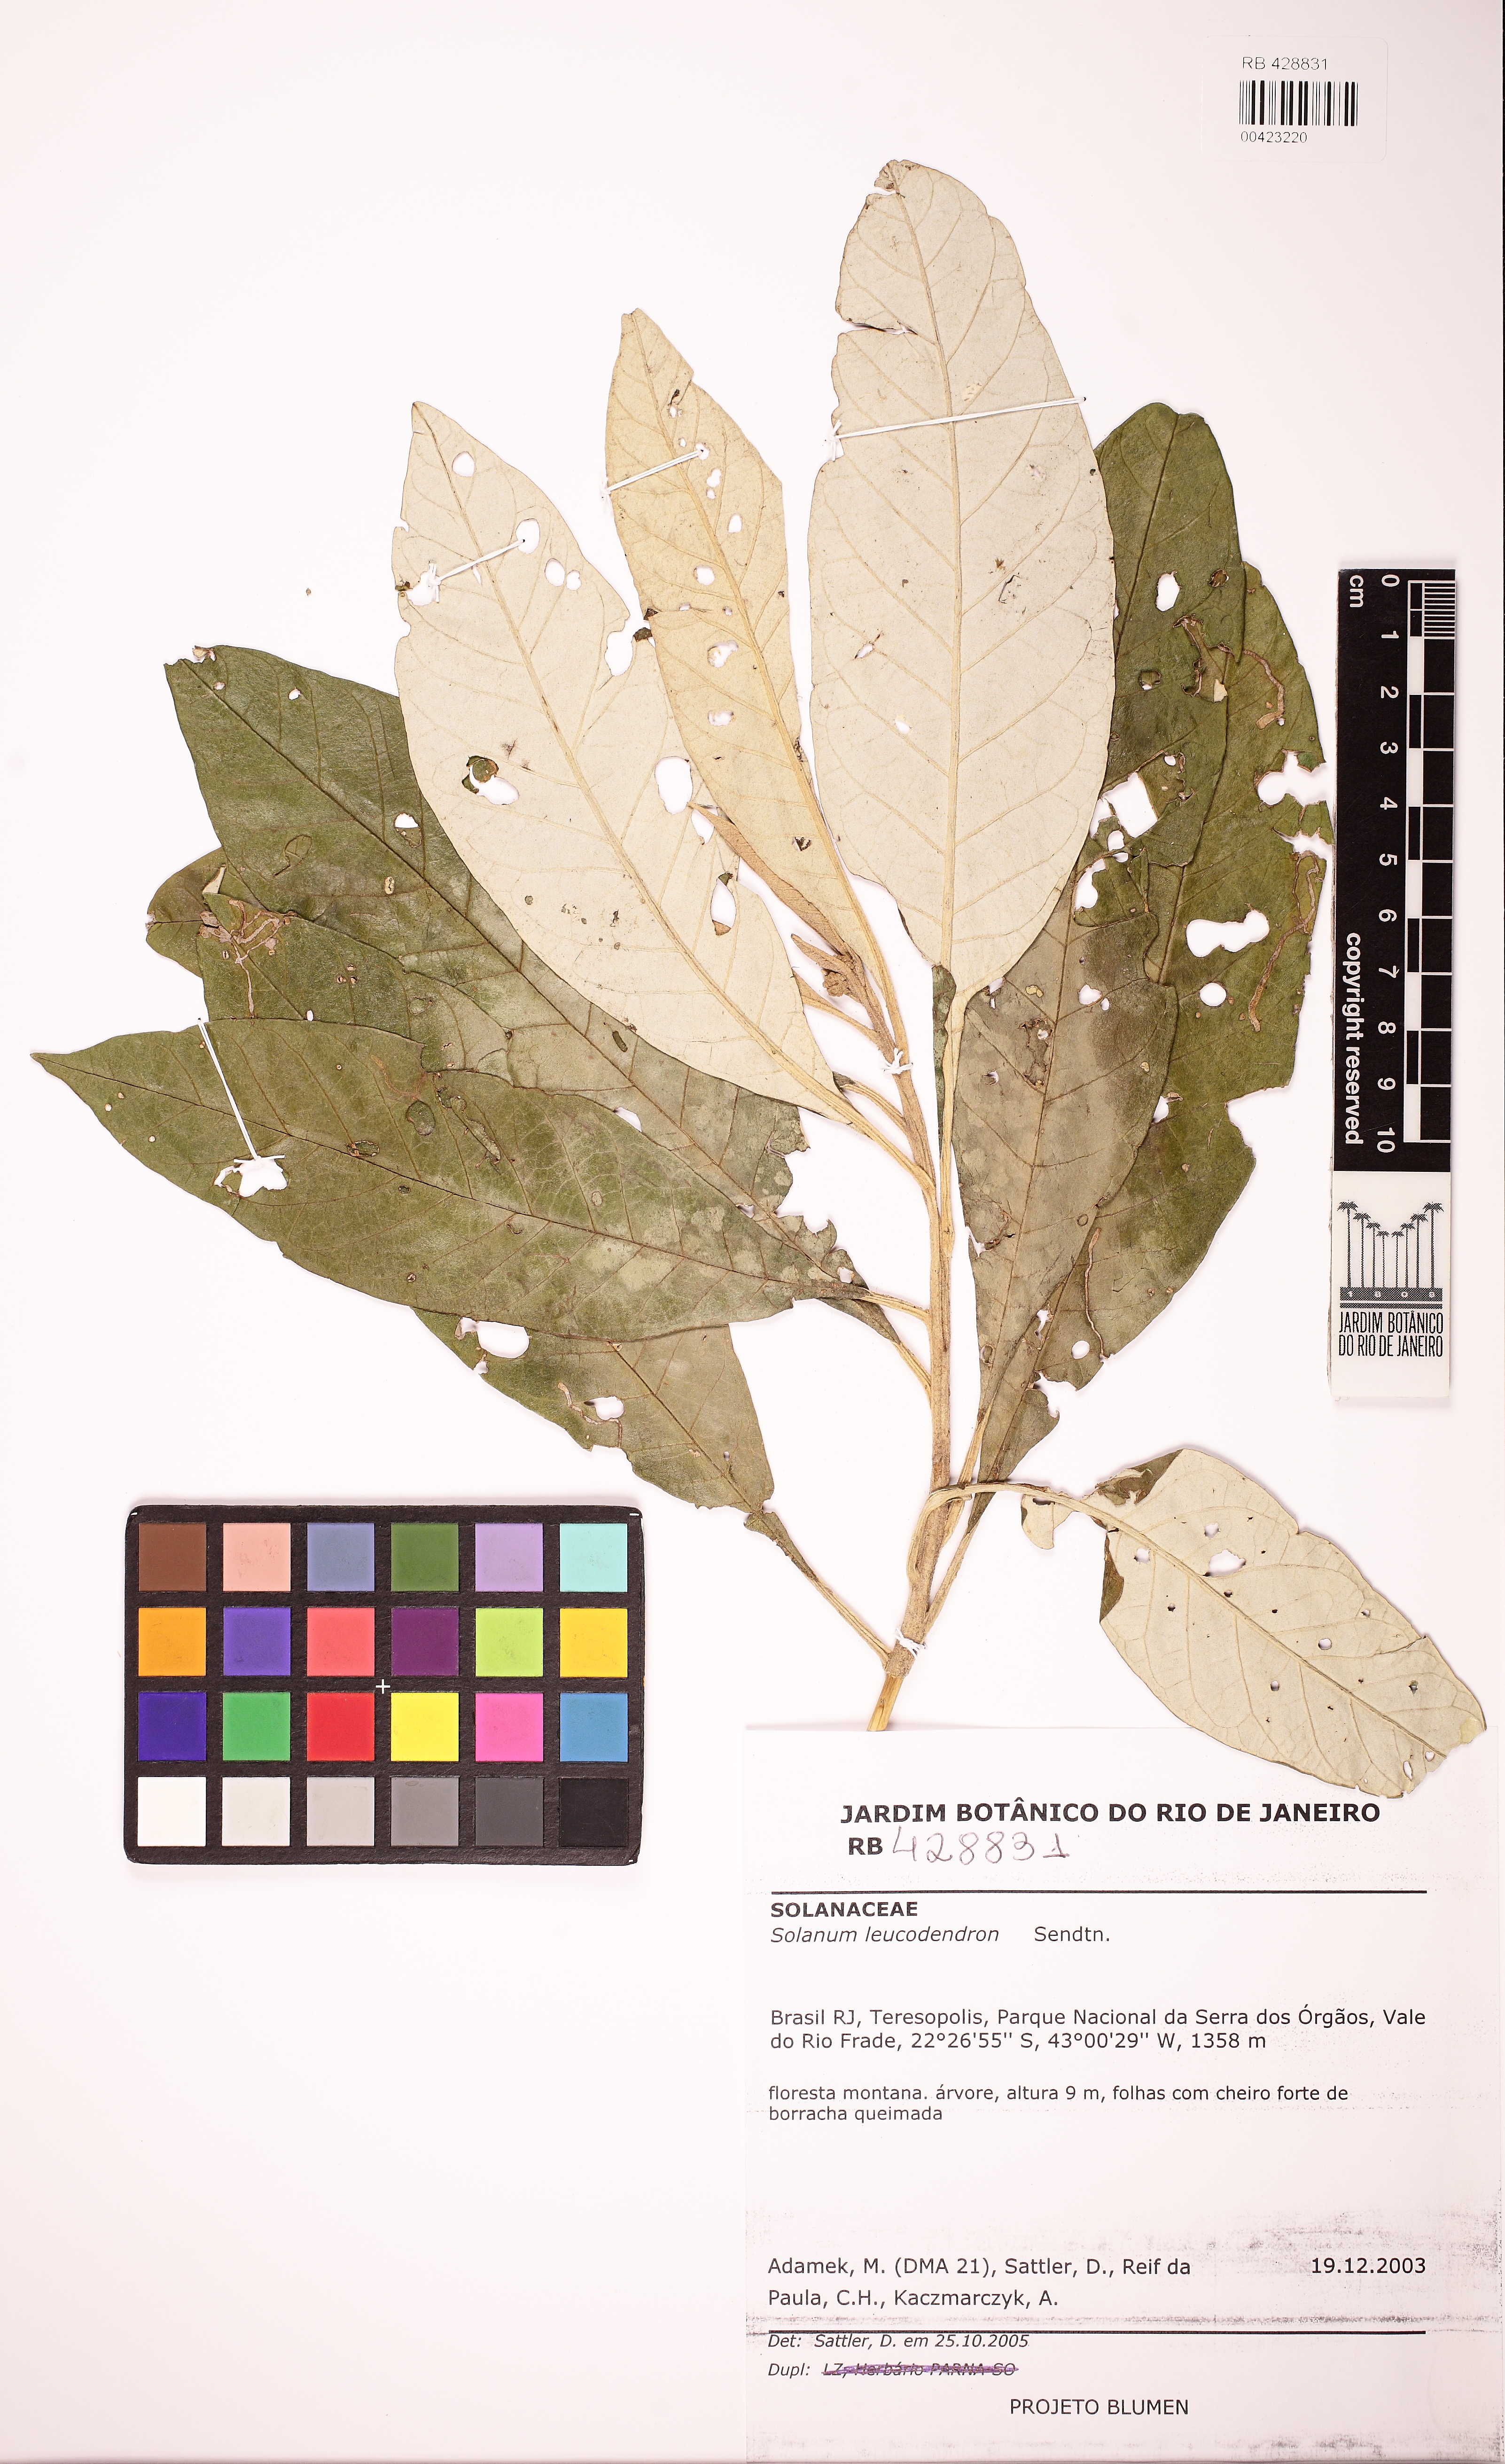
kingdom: Plantae
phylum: Tracheophyta
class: Magnoliopsida
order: Solanales
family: Solanaceae
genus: Solanum
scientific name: Solanum leucodendron
